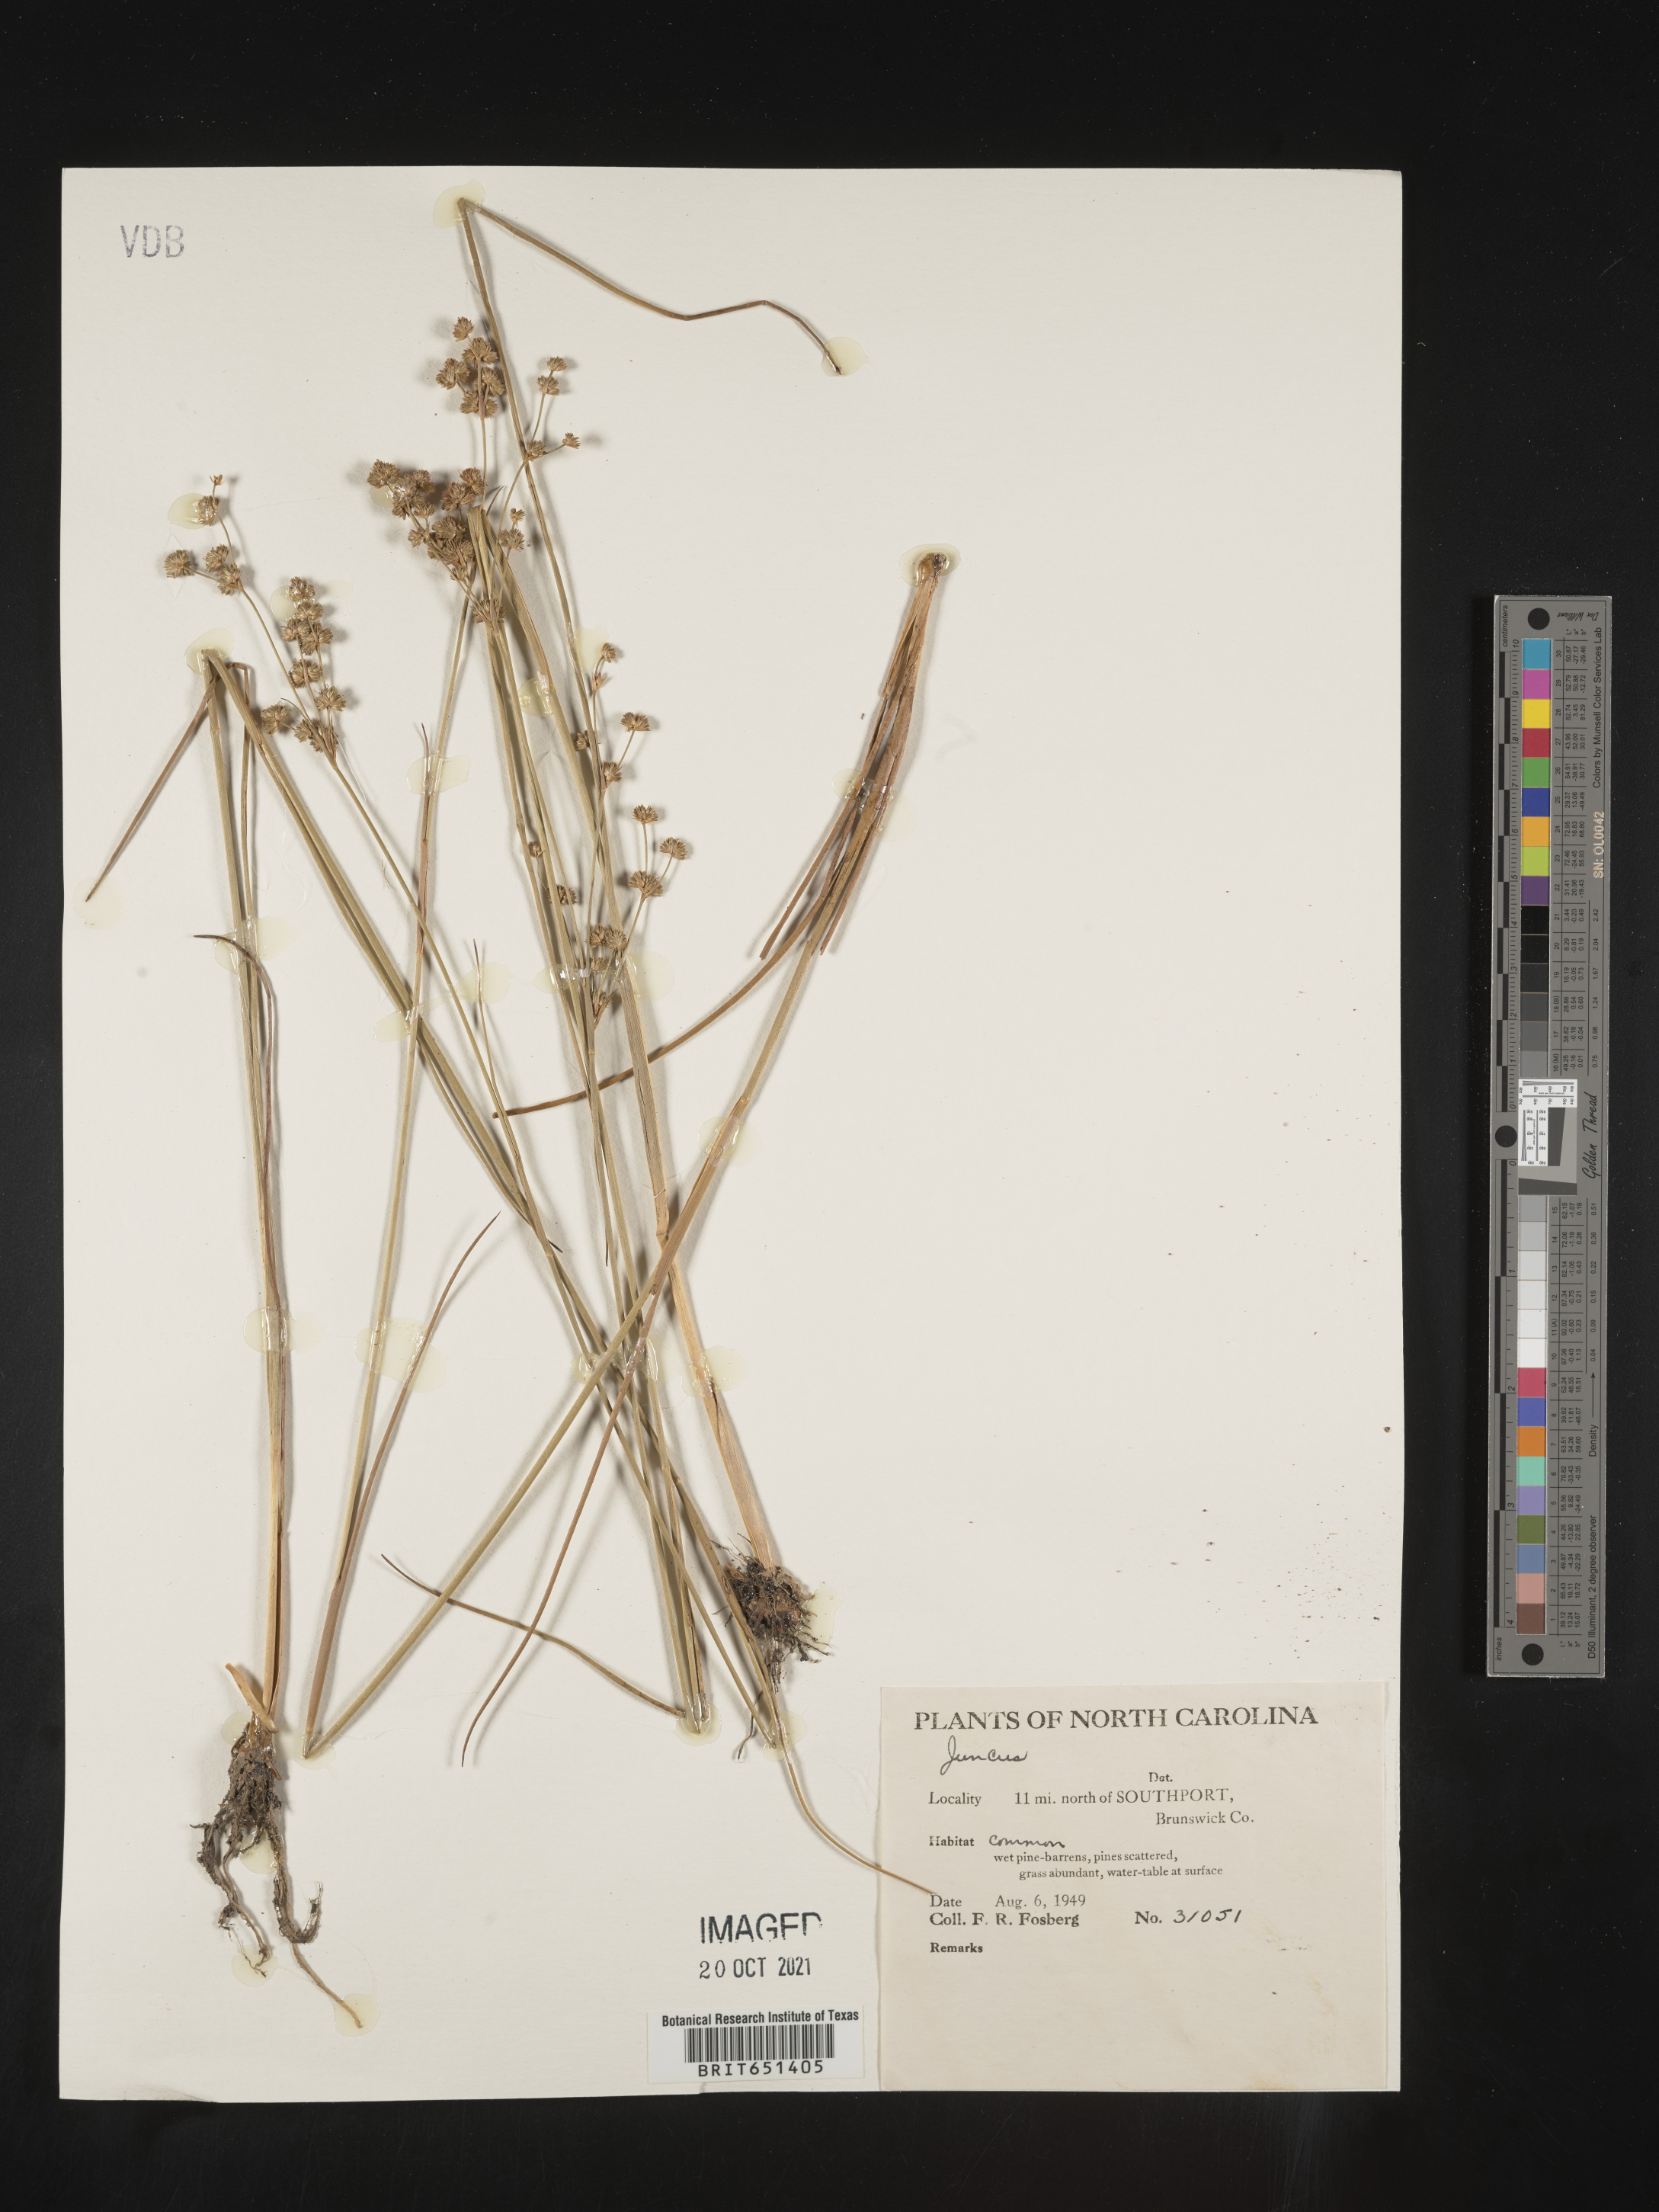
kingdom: Plantae
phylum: Tracheophyta
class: Liliopsida
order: Poales
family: Juncaceae
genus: Juncus
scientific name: Juncus
